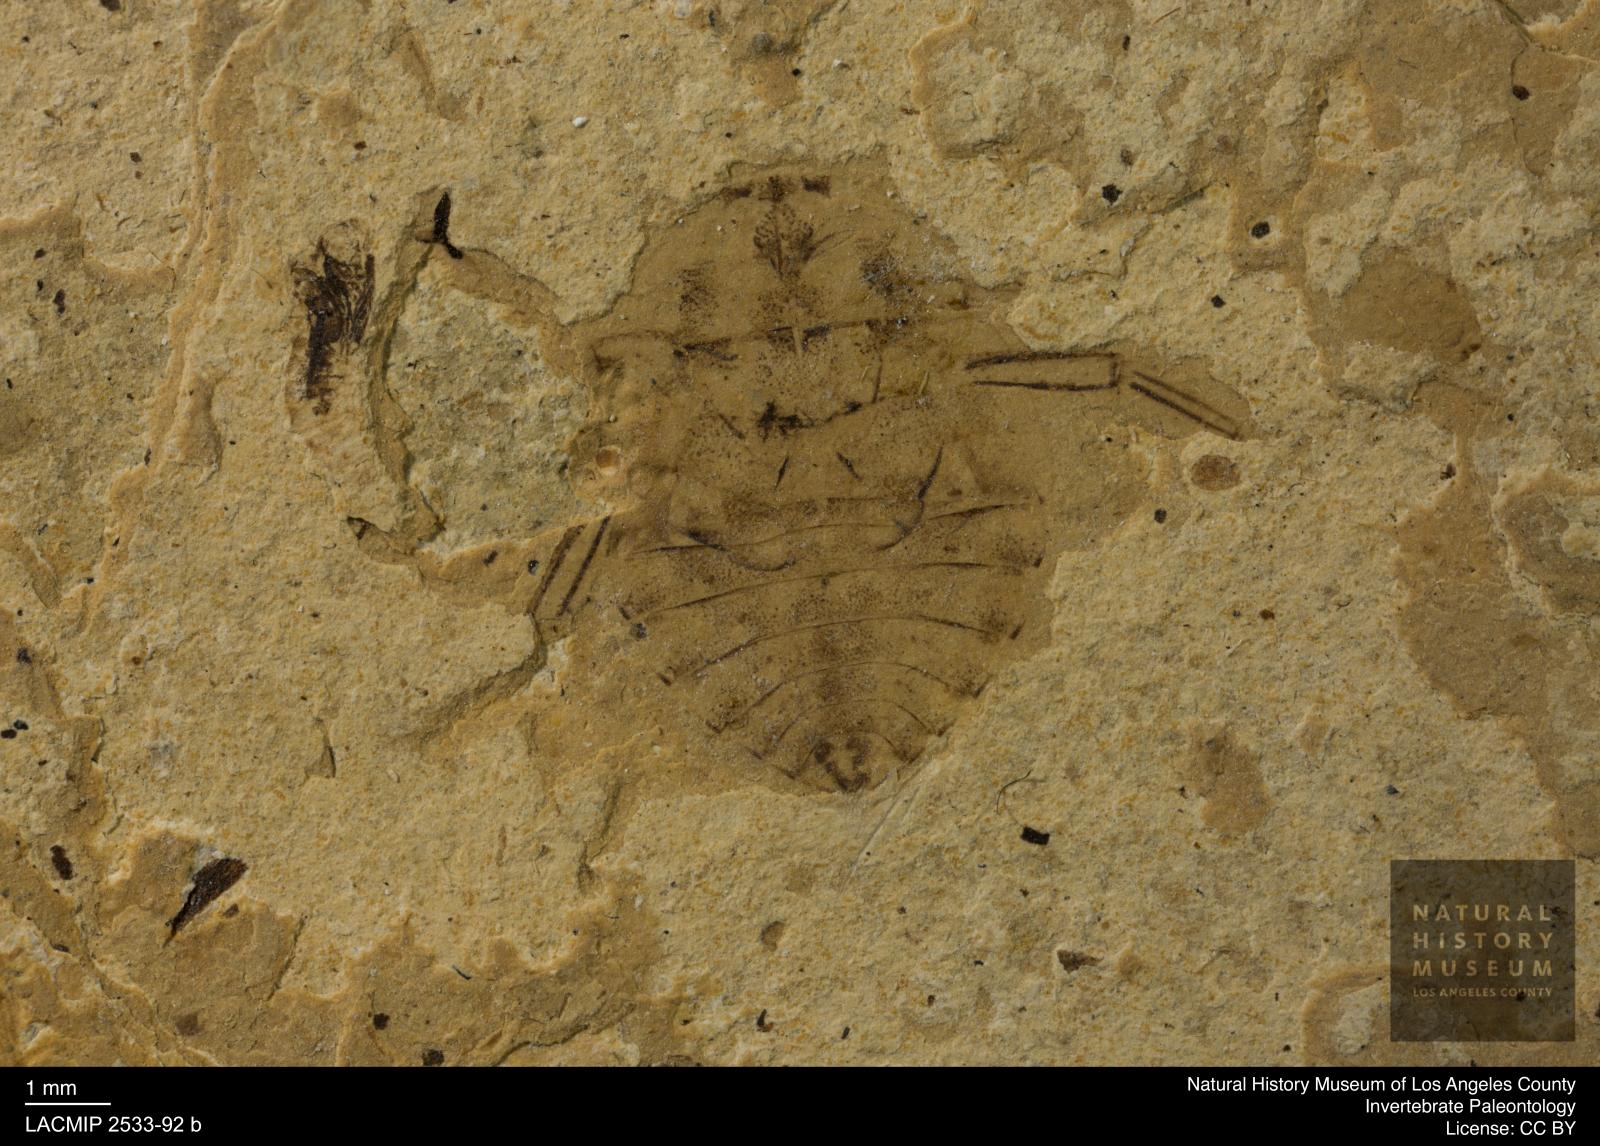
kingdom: Animalia
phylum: Arthropoda
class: Insecta
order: Hemiptera
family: Naucoridae
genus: Naucoris
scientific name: Naucoris rottensis
